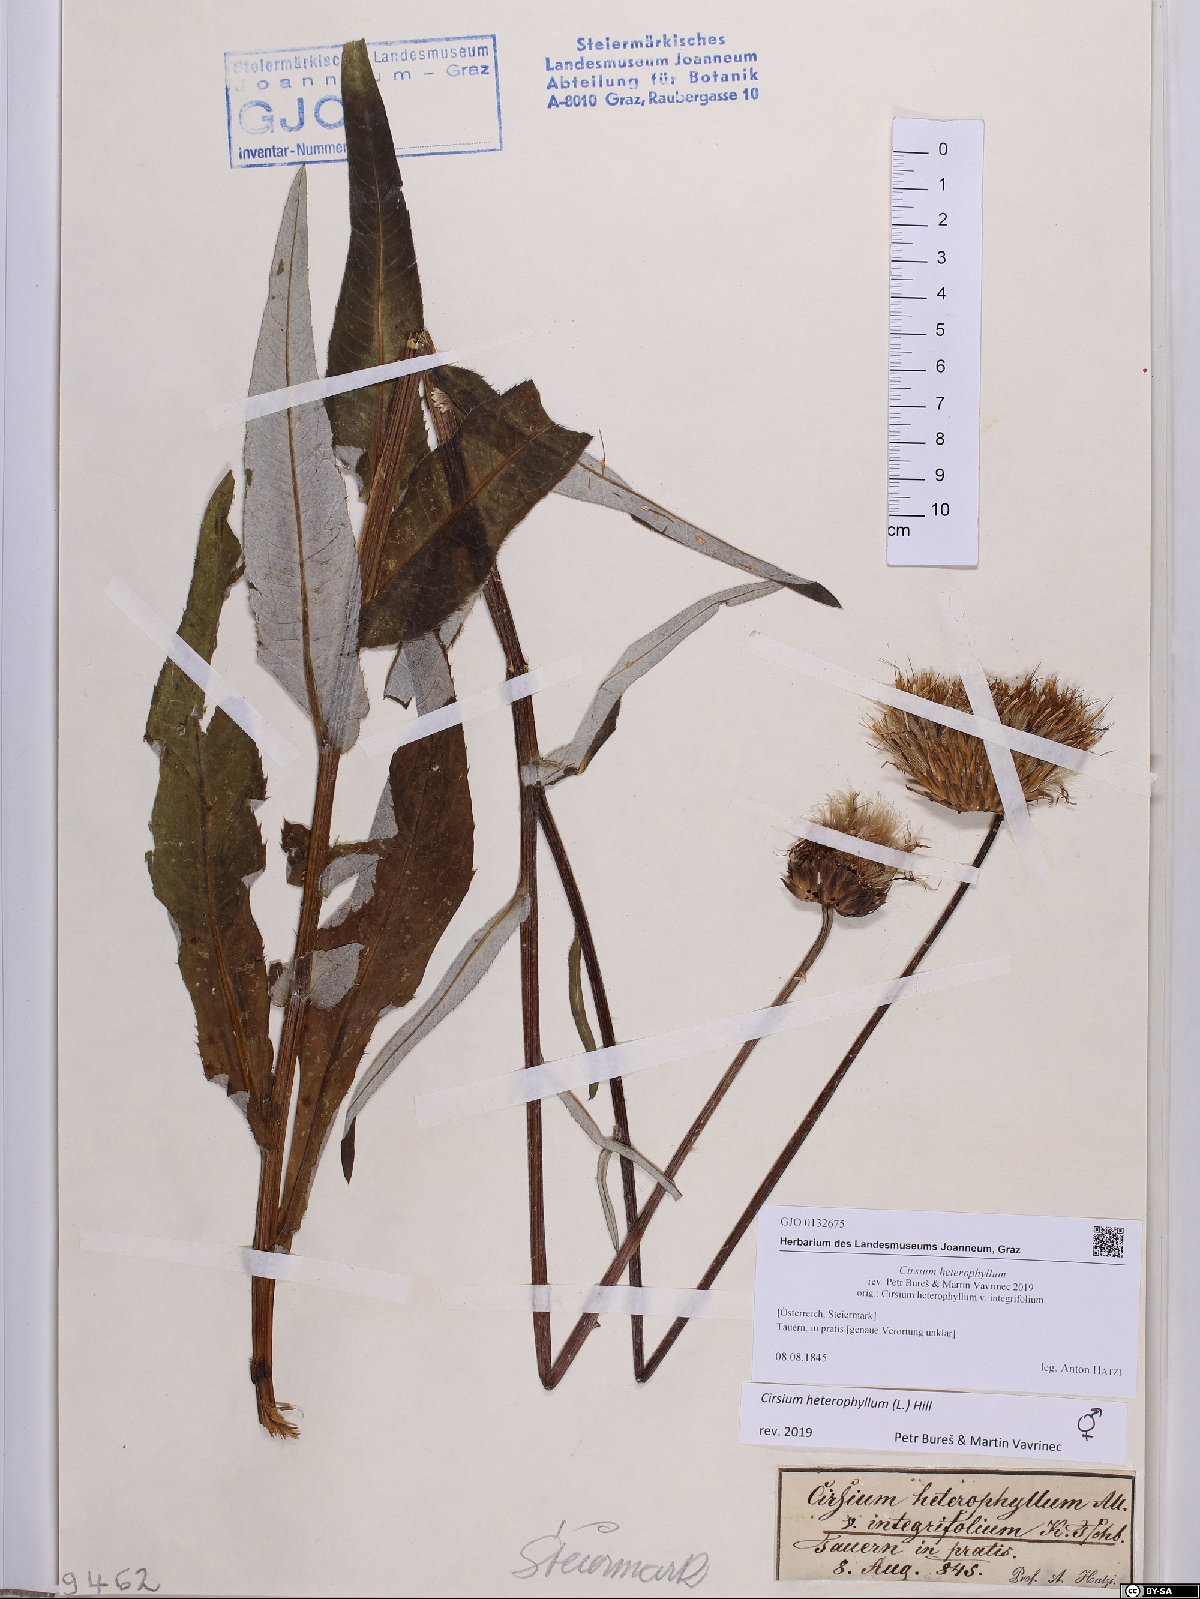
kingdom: Plantae
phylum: Tracheophyta
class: Magnoliopsida
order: Asterales
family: Asteraceae
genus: Cirsium
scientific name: Cirsium heterophyllum
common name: Melancholy thistle
